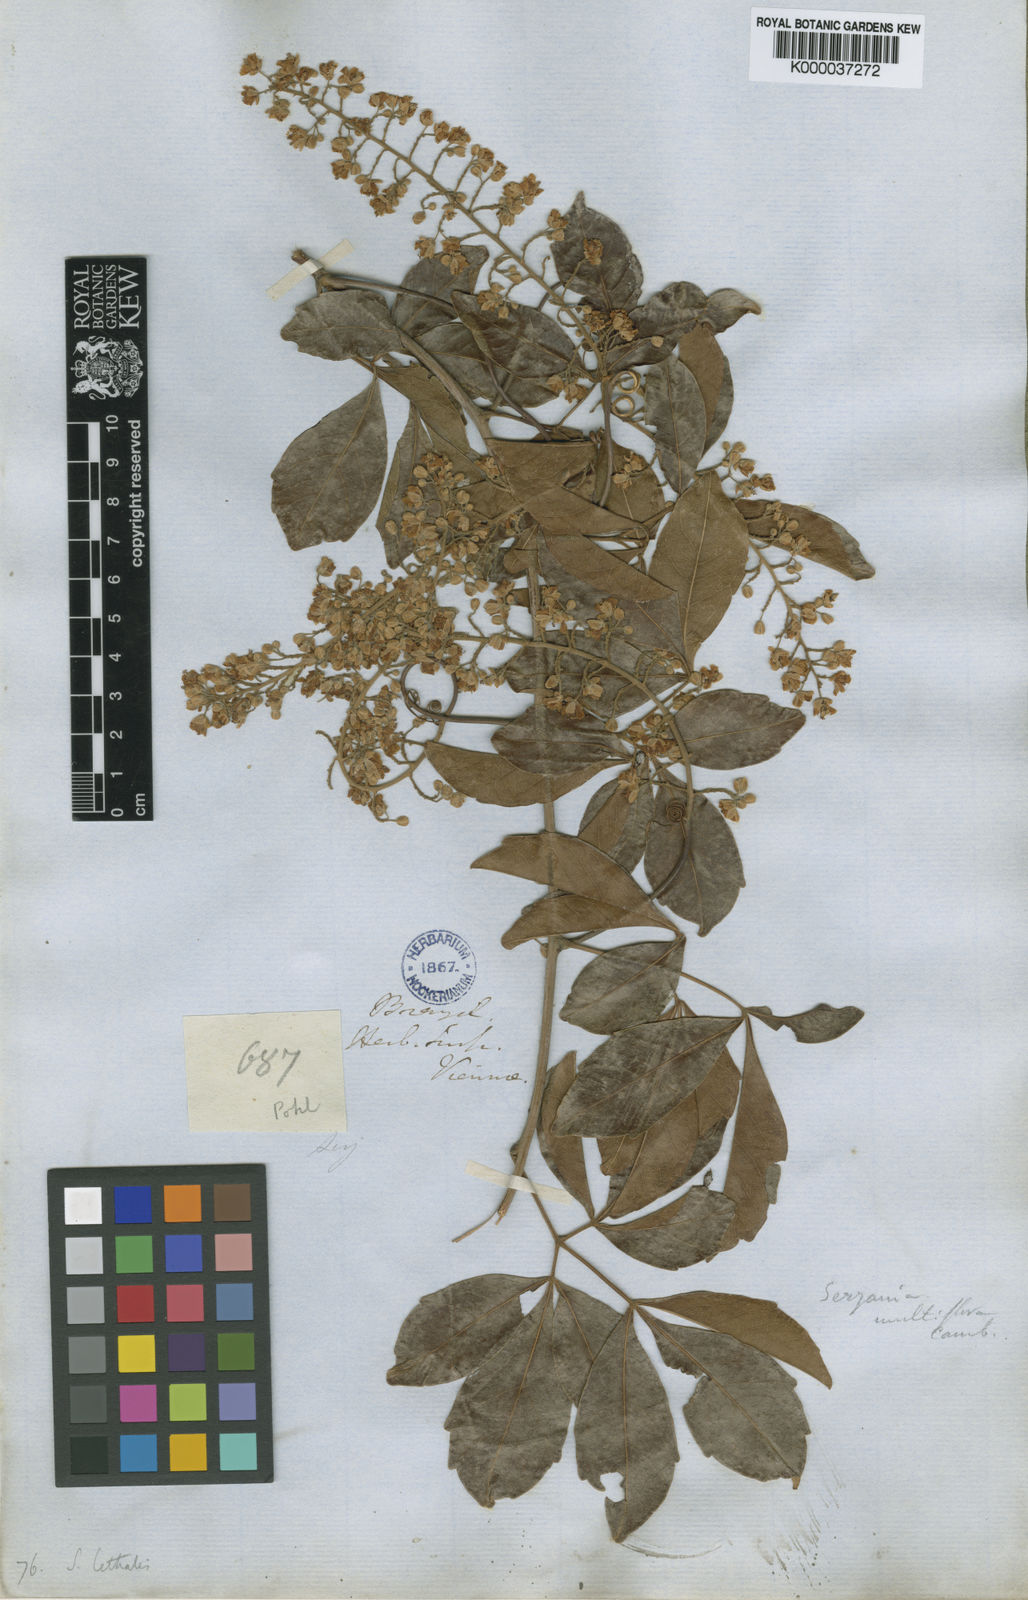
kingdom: Plantae
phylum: Tracheophyta
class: Magnoliopsida
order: Sapindales
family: Sapindaceae
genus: Serjania
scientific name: Serjania lethalis
